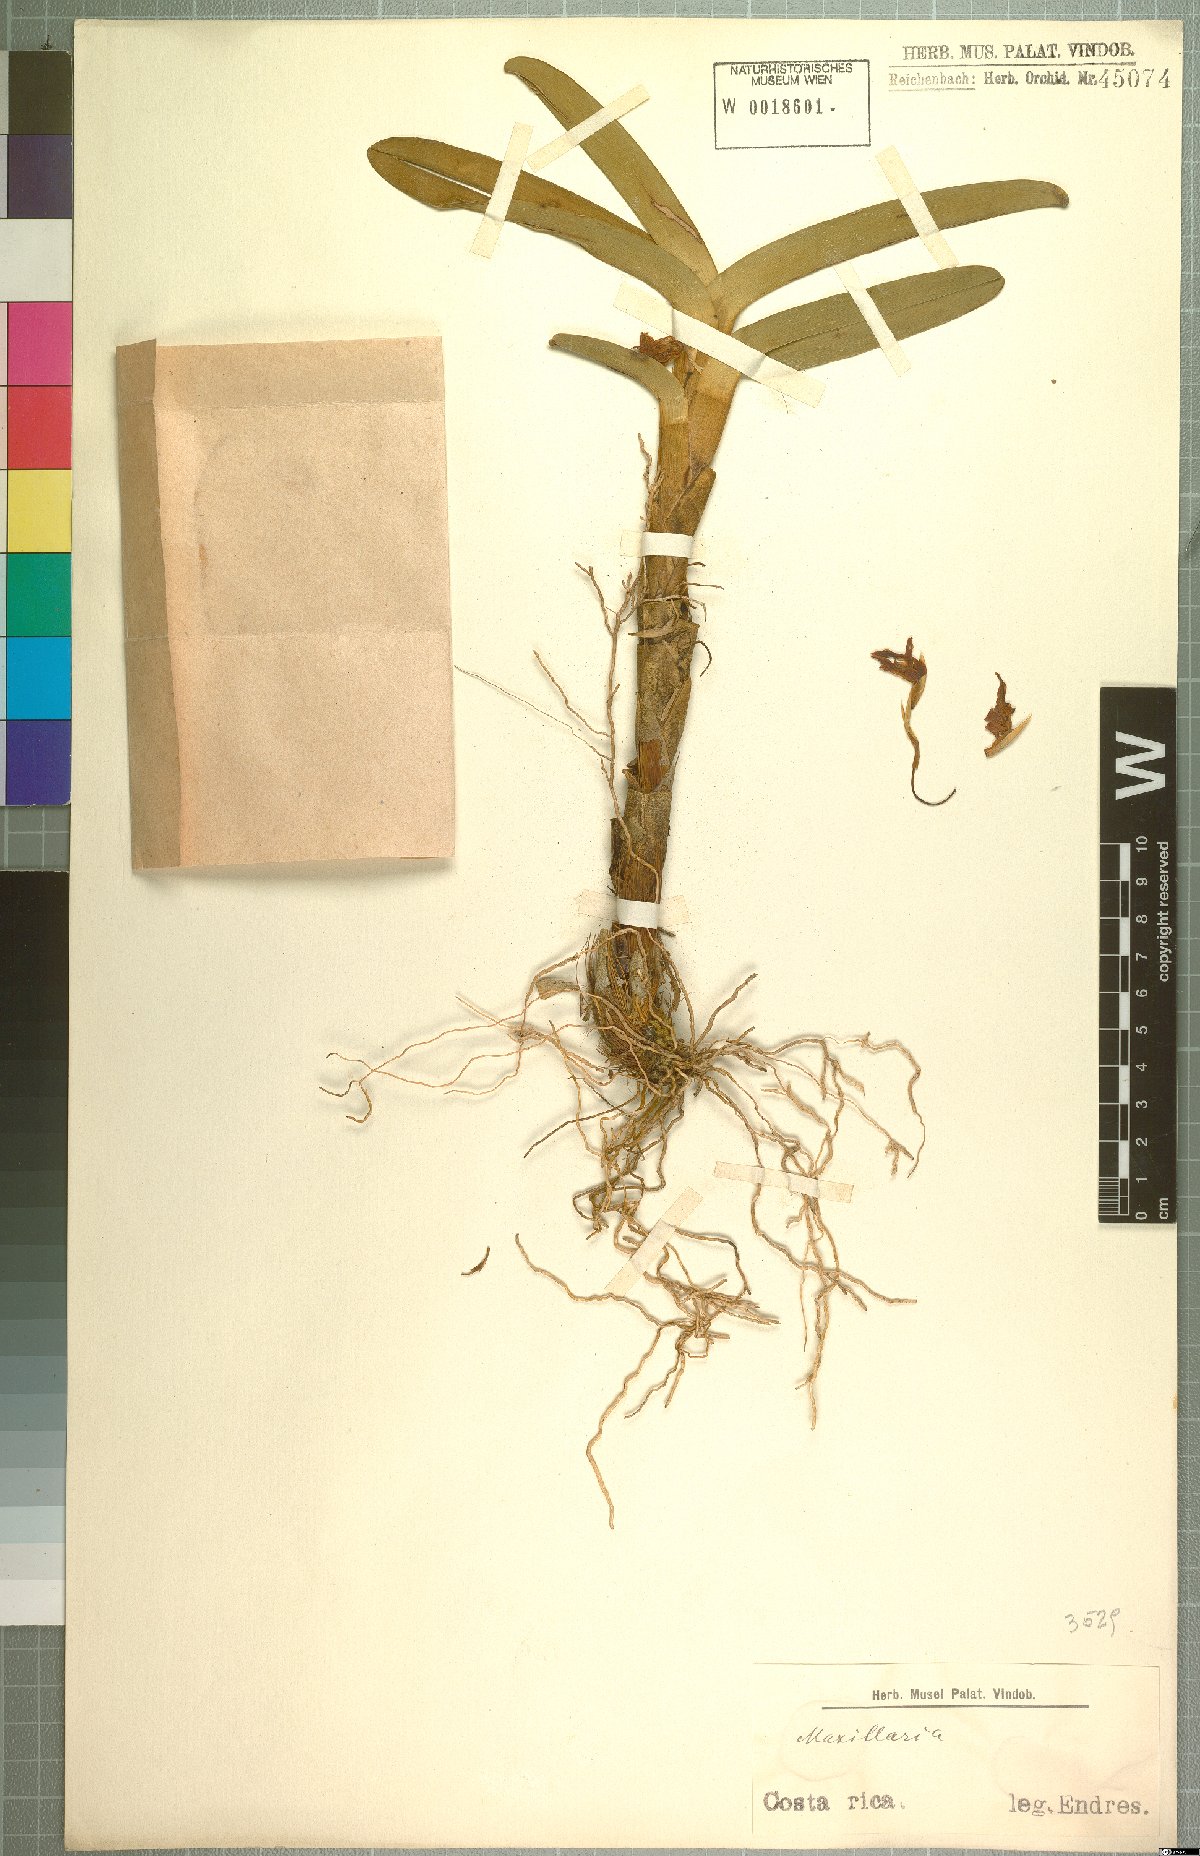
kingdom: Plantae
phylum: Tracheophyta
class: Liliopsida
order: Asparagales
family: Orchidaceae
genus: Maxillaria
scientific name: Maxillaria
